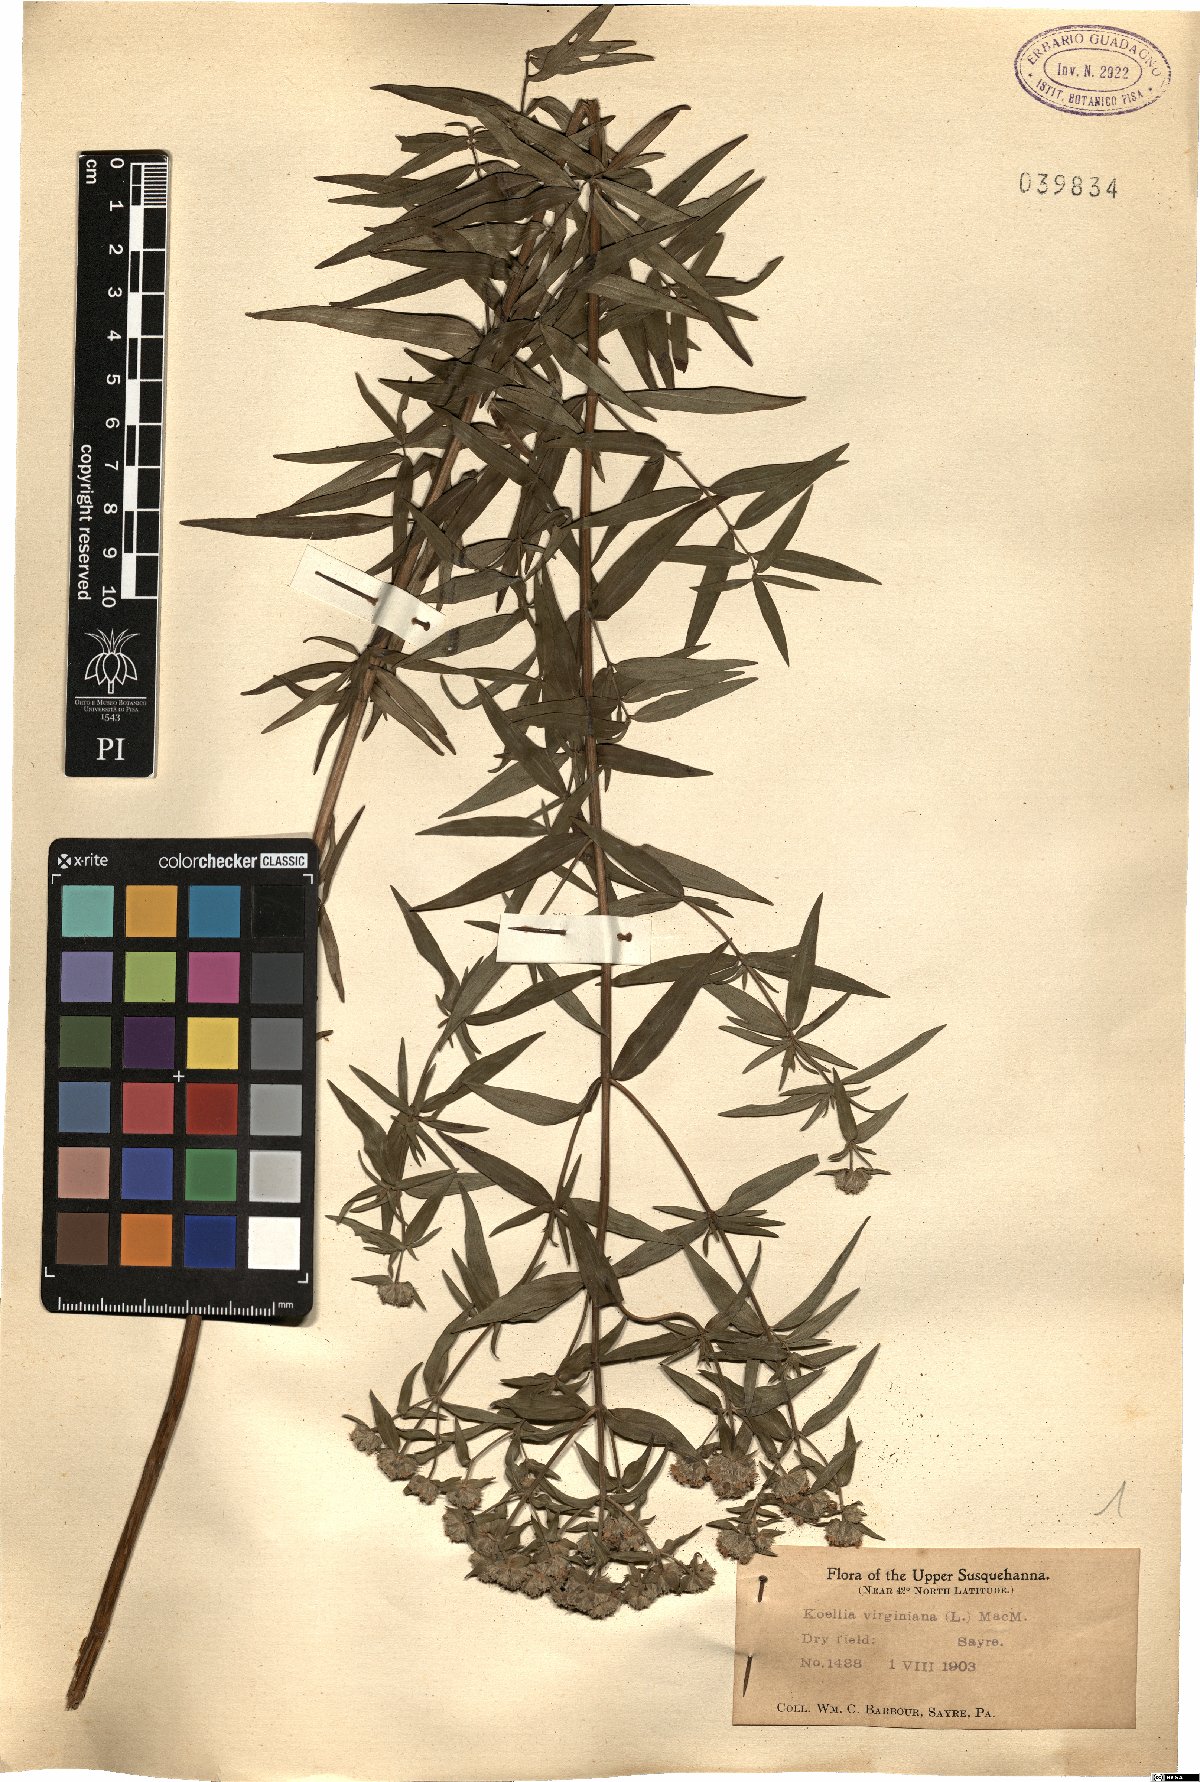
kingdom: Plantae
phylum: Tracheophyta
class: Magnoliopsida
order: Lamiales
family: Lamiaceae
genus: Pycnanthemum
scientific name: Pycnanthemum virginianum
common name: Virginia mountain-mint
